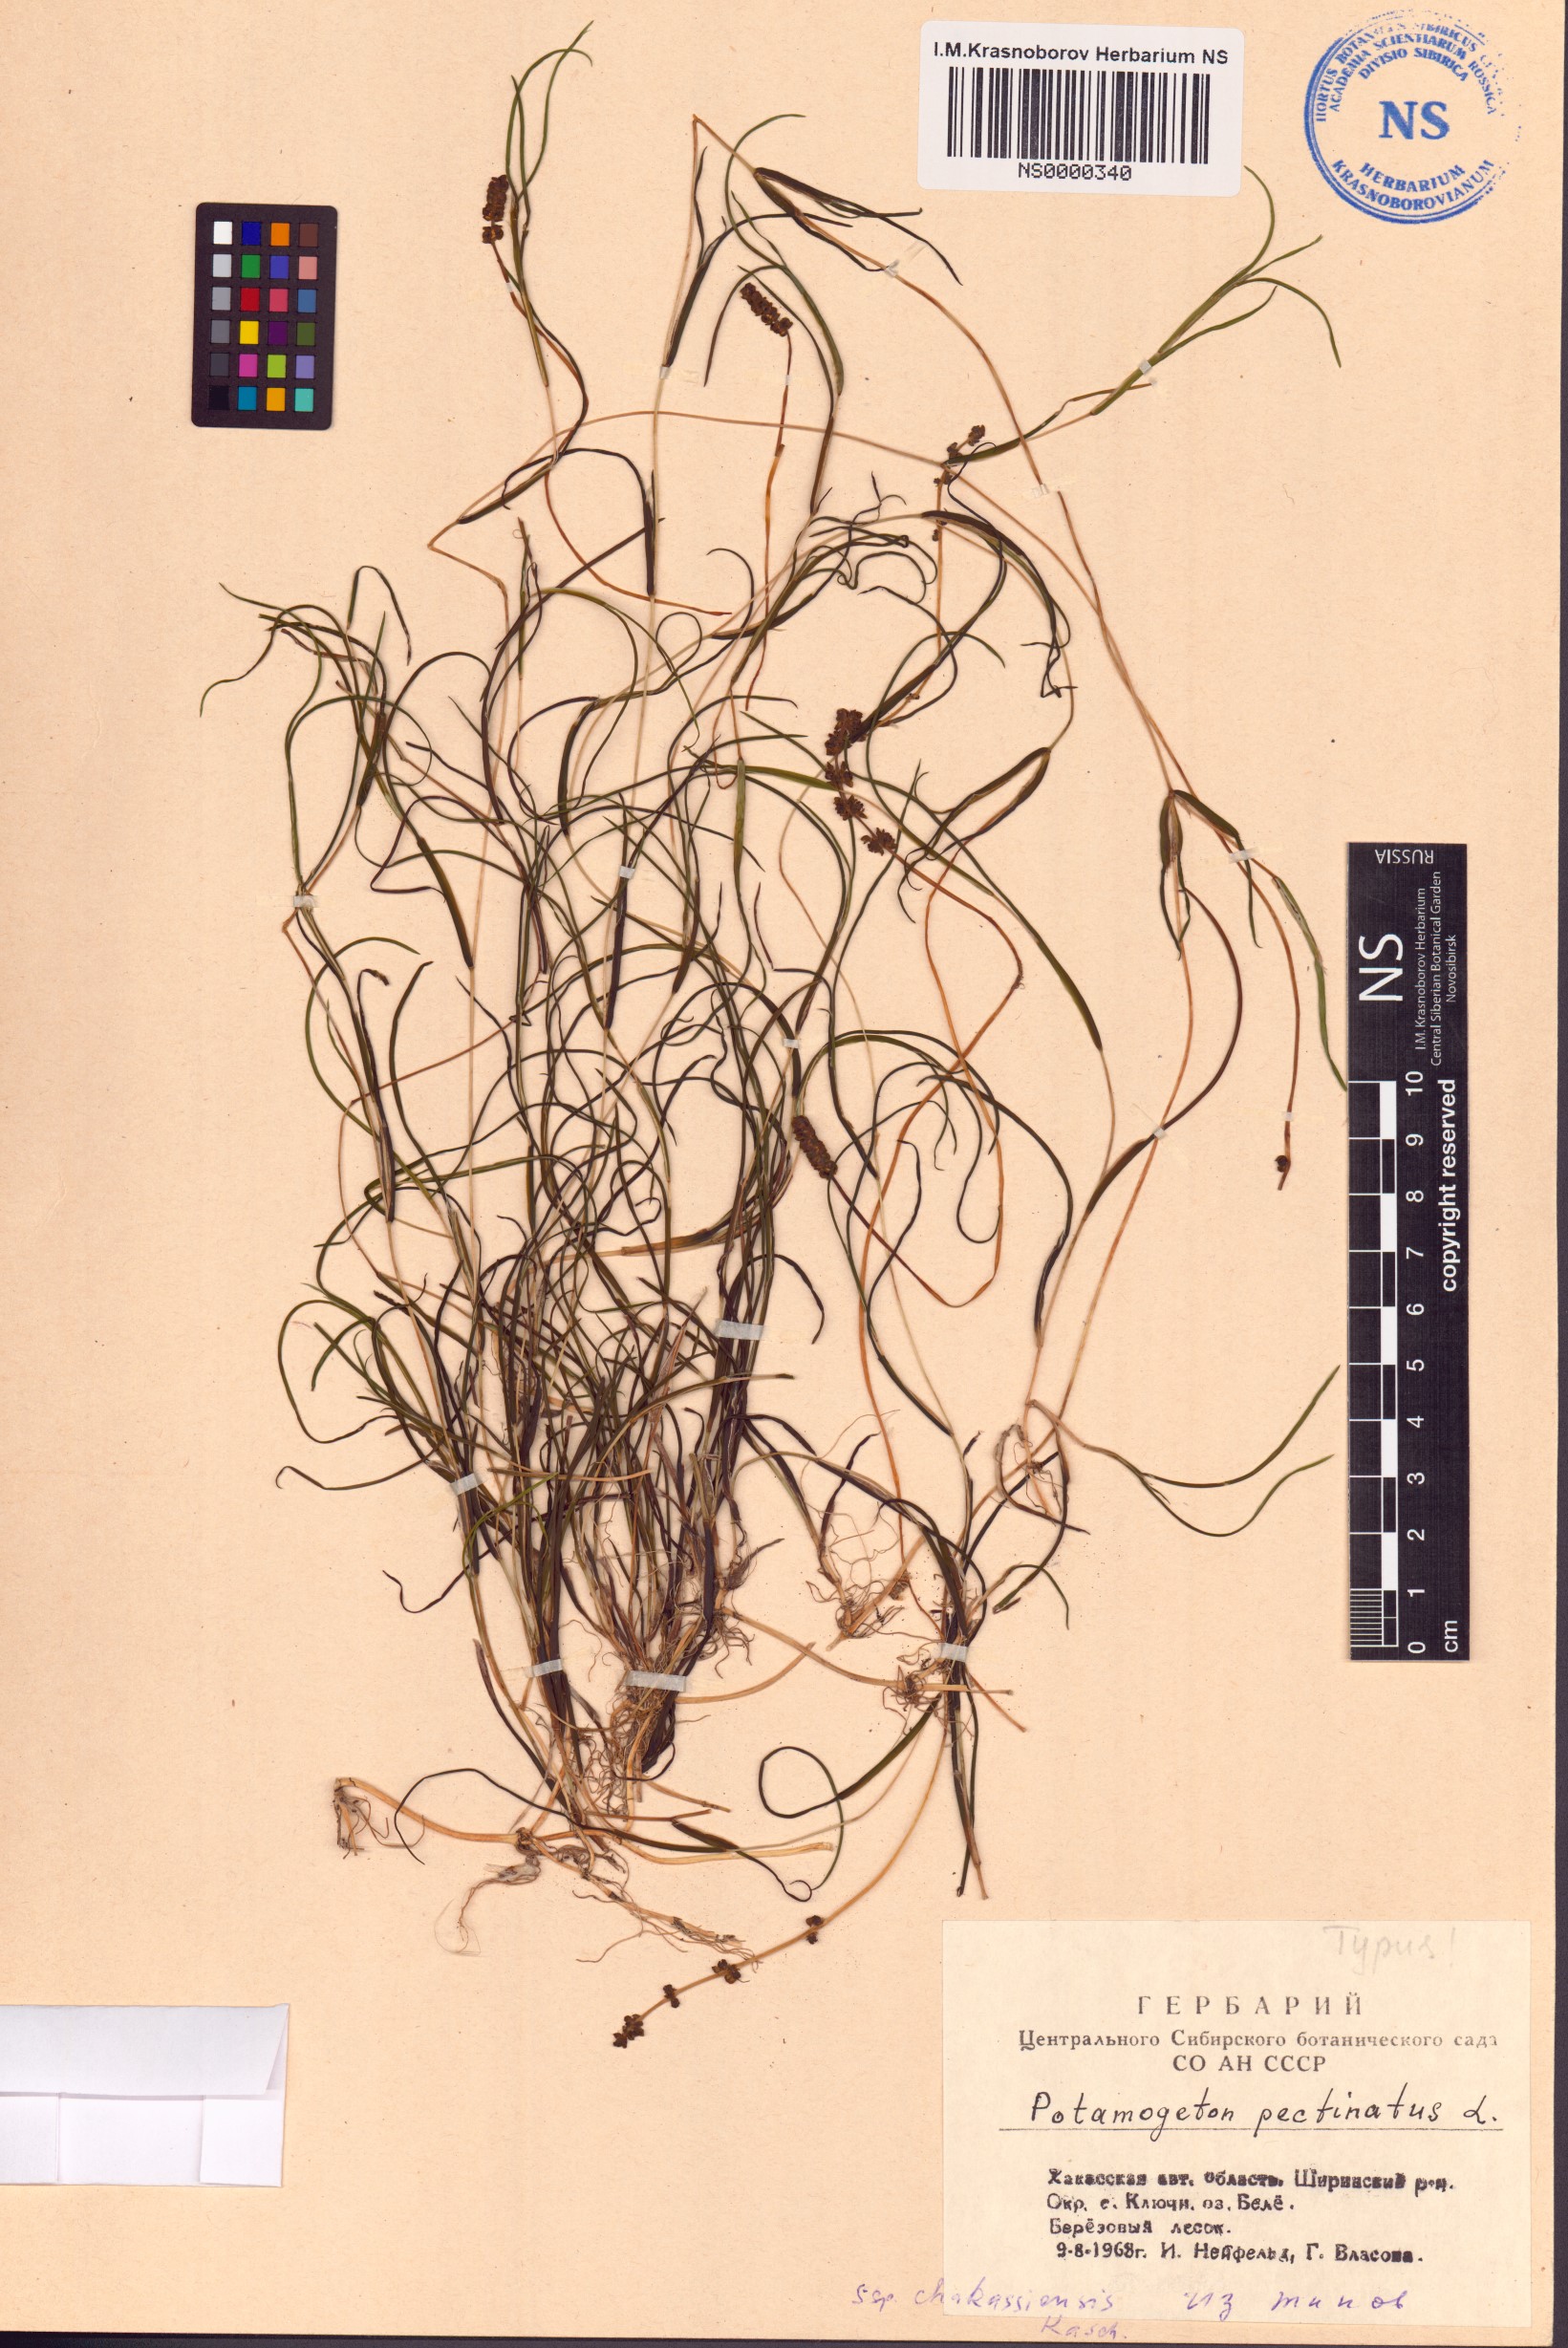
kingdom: Plantae
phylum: Tracheophyta
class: Liliopsida
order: Alismatales
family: Potamogetonaceae
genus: Stuckenia
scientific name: Stuckenia pectinata
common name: Sago pondweed
